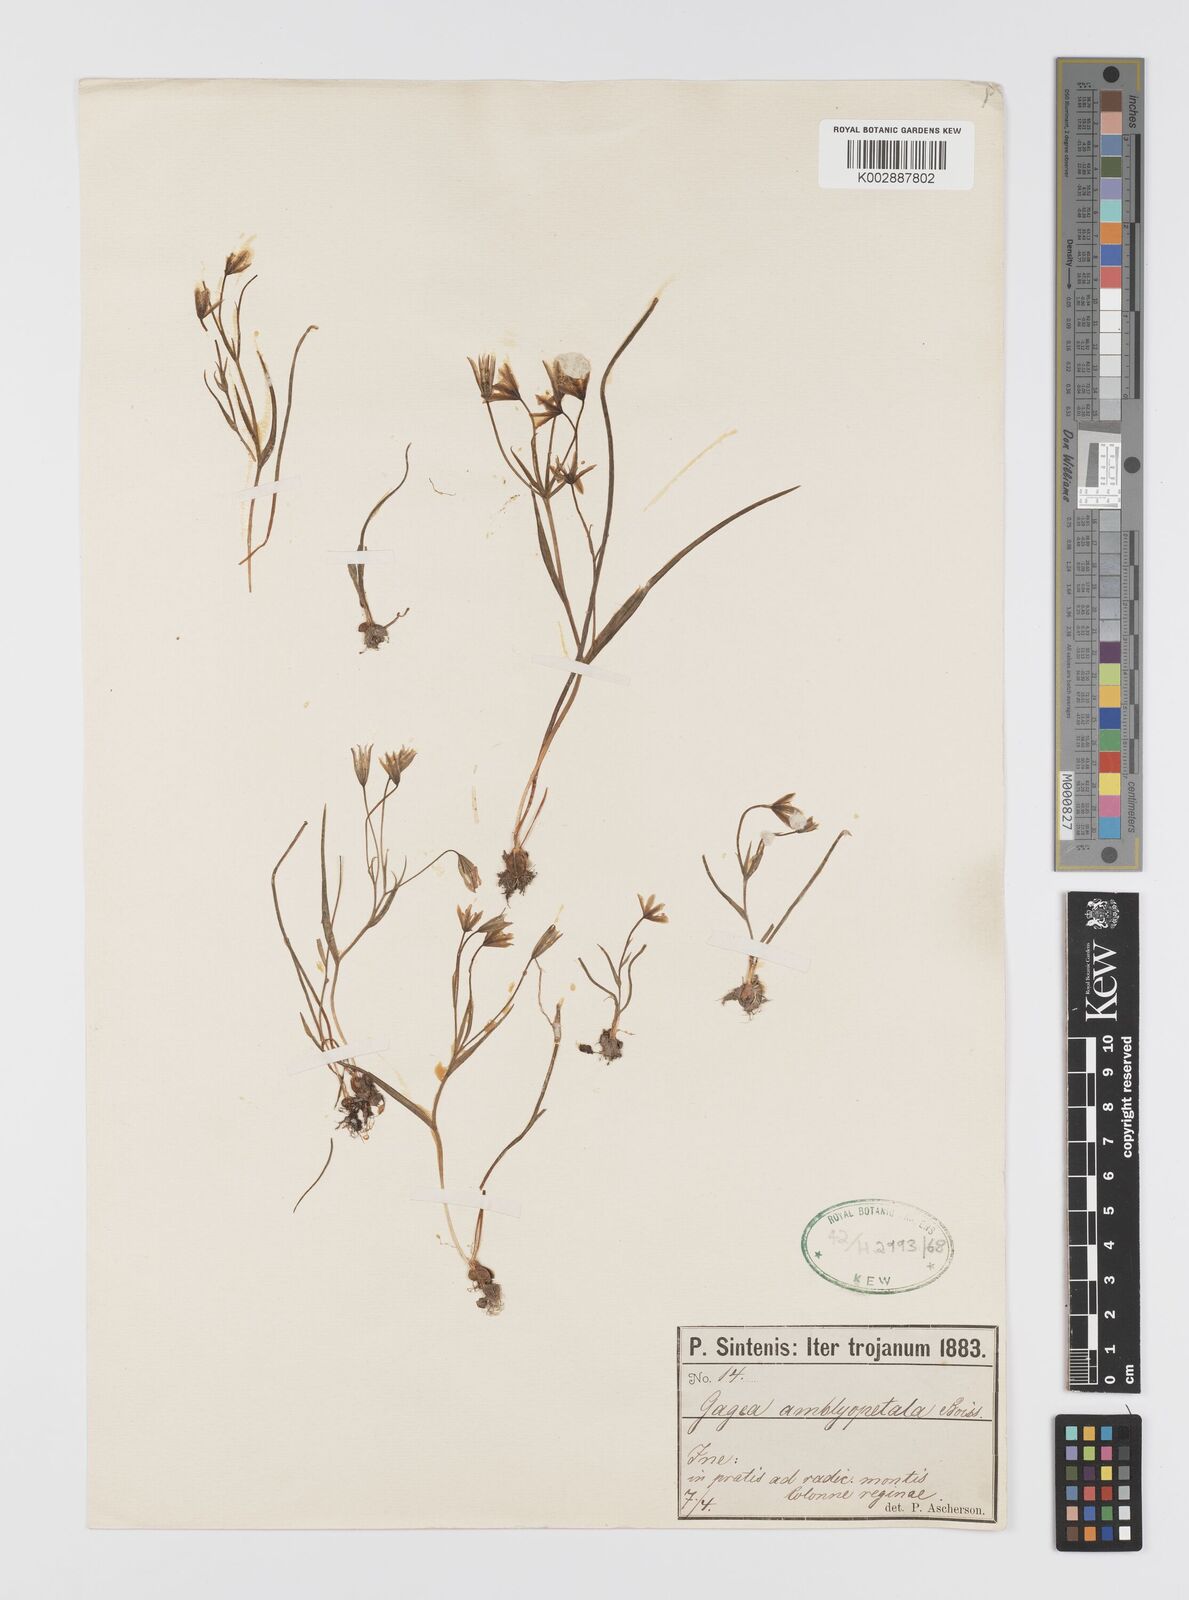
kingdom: Plantae
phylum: Tracheophyta
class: Liliopsida
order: Liliales
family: Liliaceae
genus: Gagea
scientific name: Gagea longifolia
